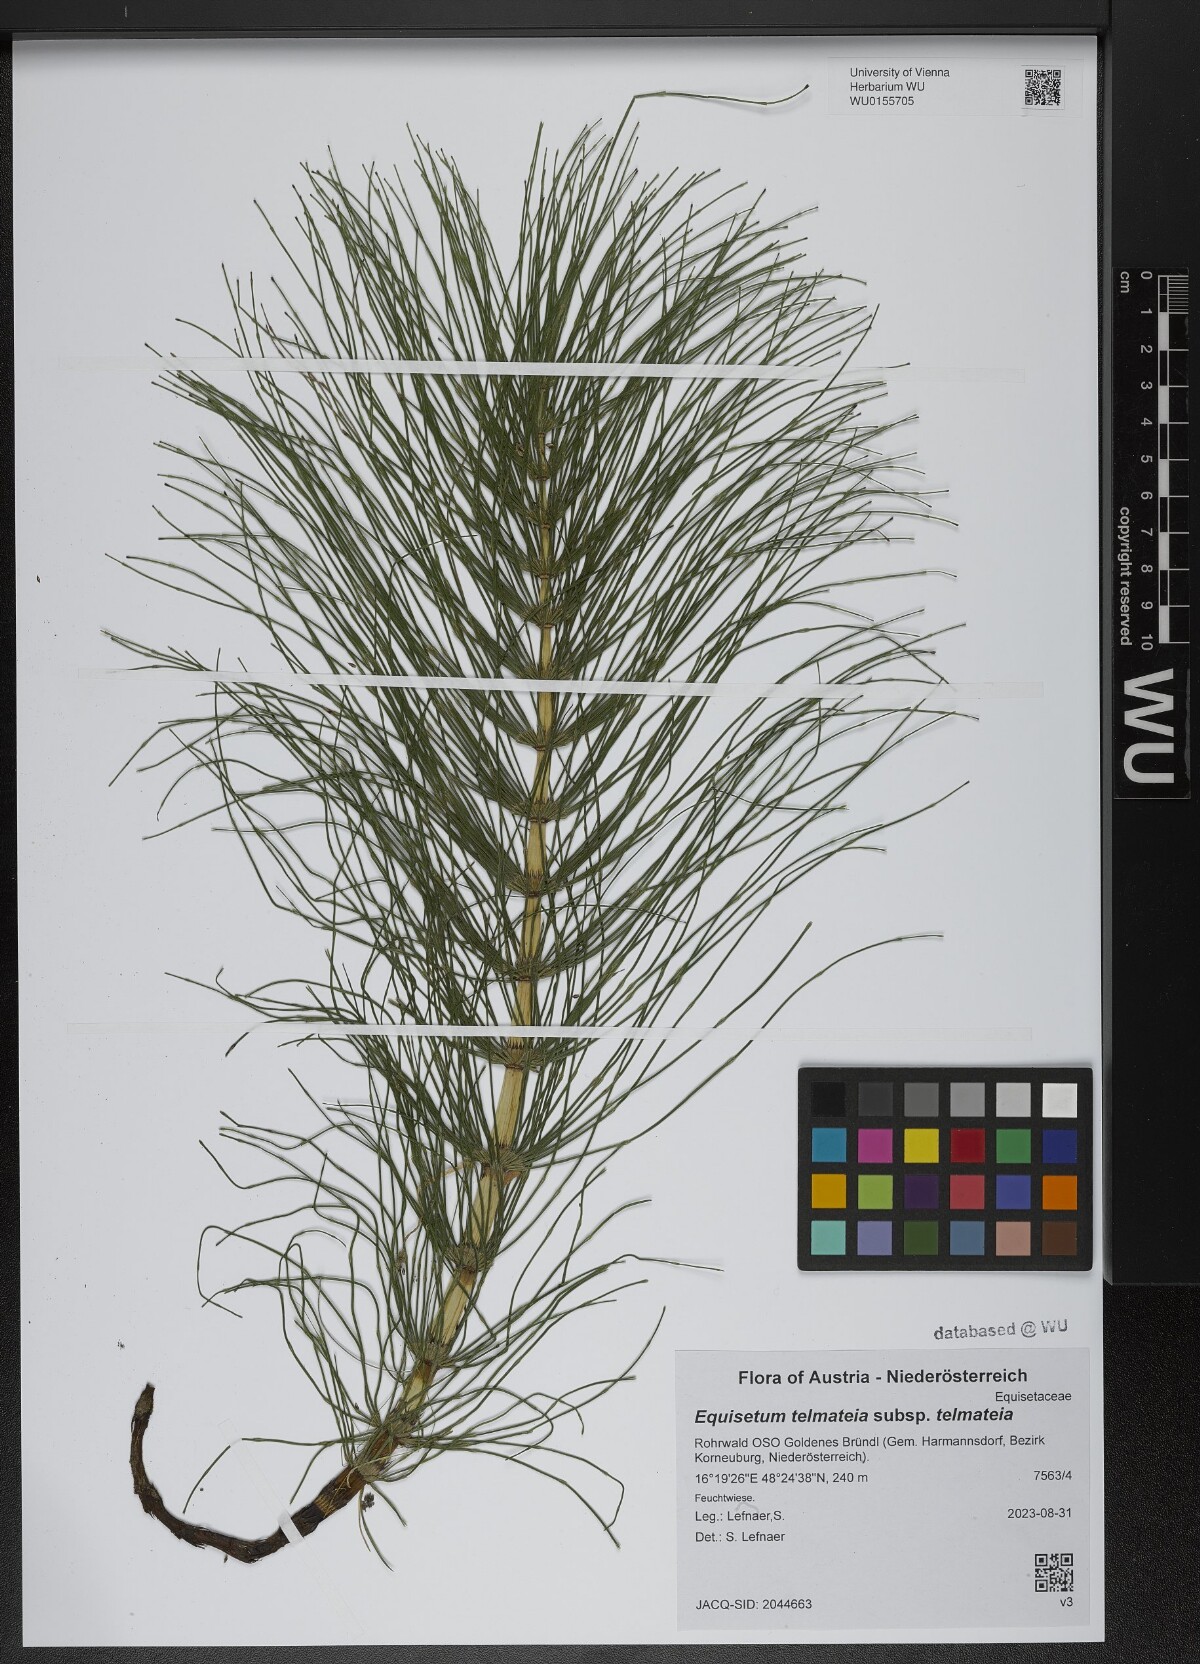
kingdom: Plantae
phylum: Tracheophyta
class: Polypodiopsida
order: Equisetales
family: Equisetaceae
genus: Equisetum
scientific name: Equisetum telmateia
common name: Great horsetail
